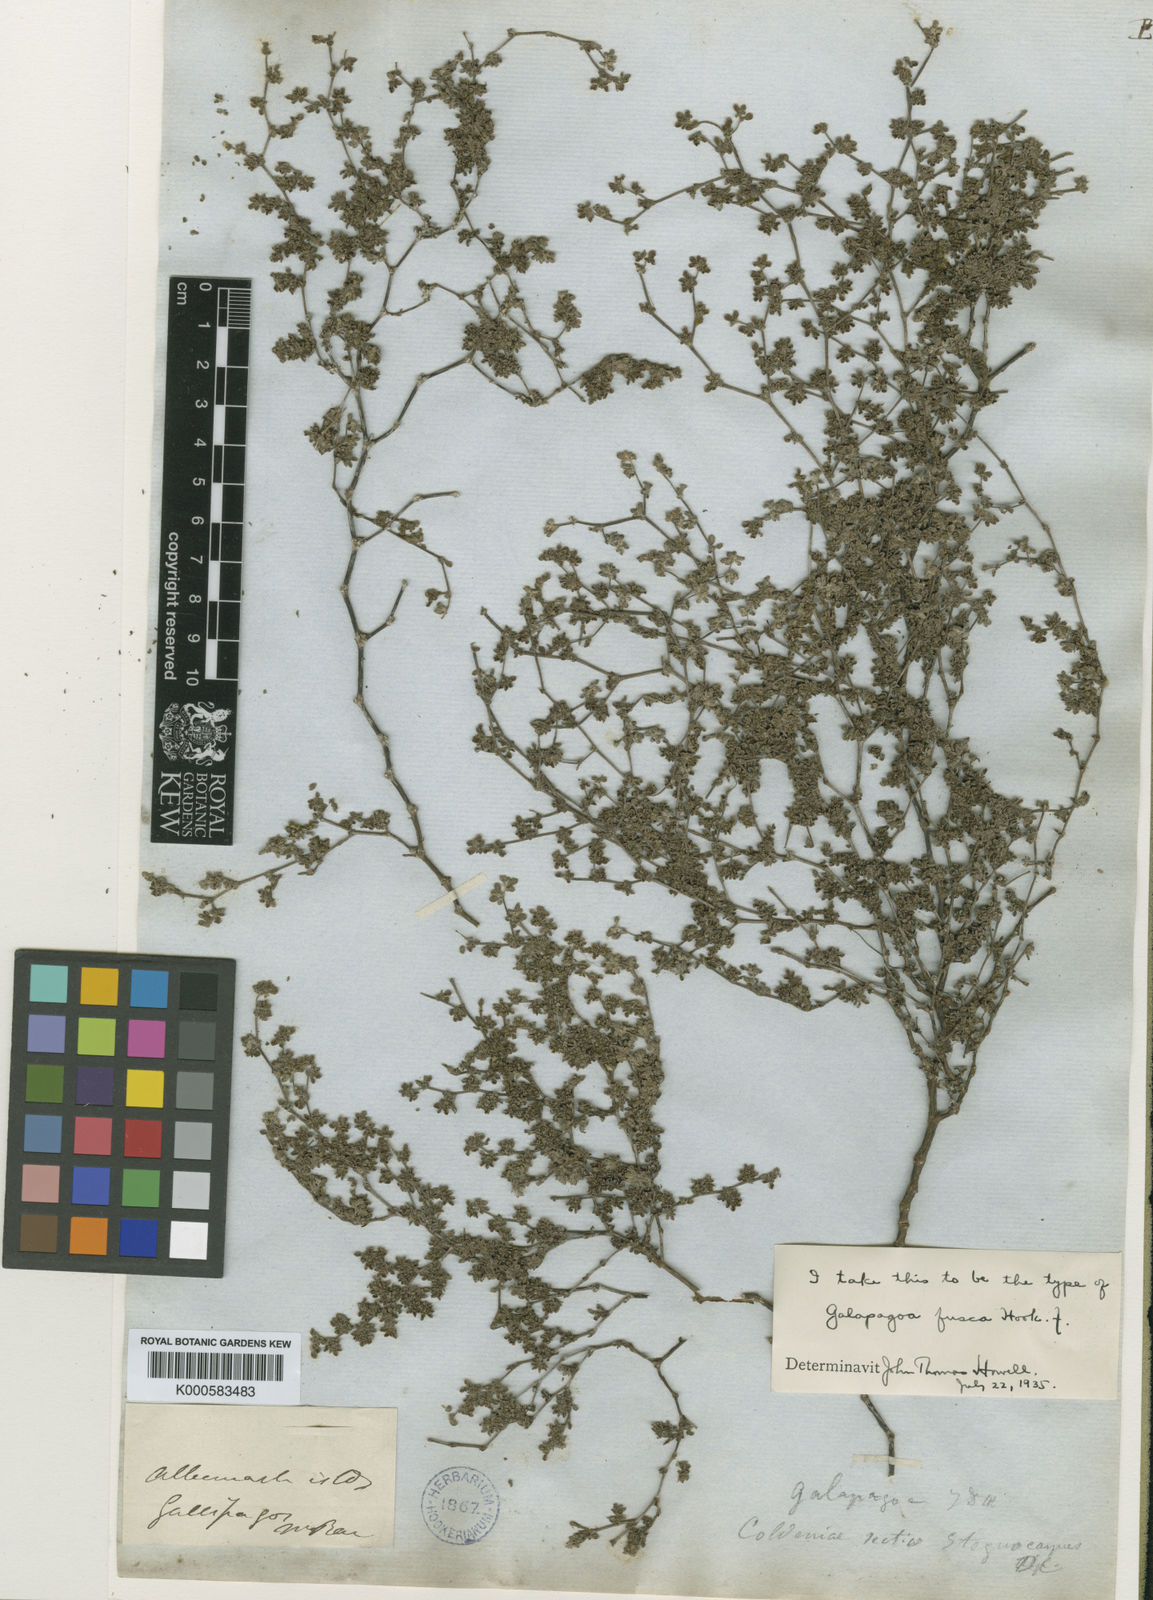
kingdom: Plantae
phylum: Tracheophyta
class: Magnoliopsida
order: Boraginales
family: Ehretiaceae
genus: Tiquilia
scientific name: Tiquilia darwinii
